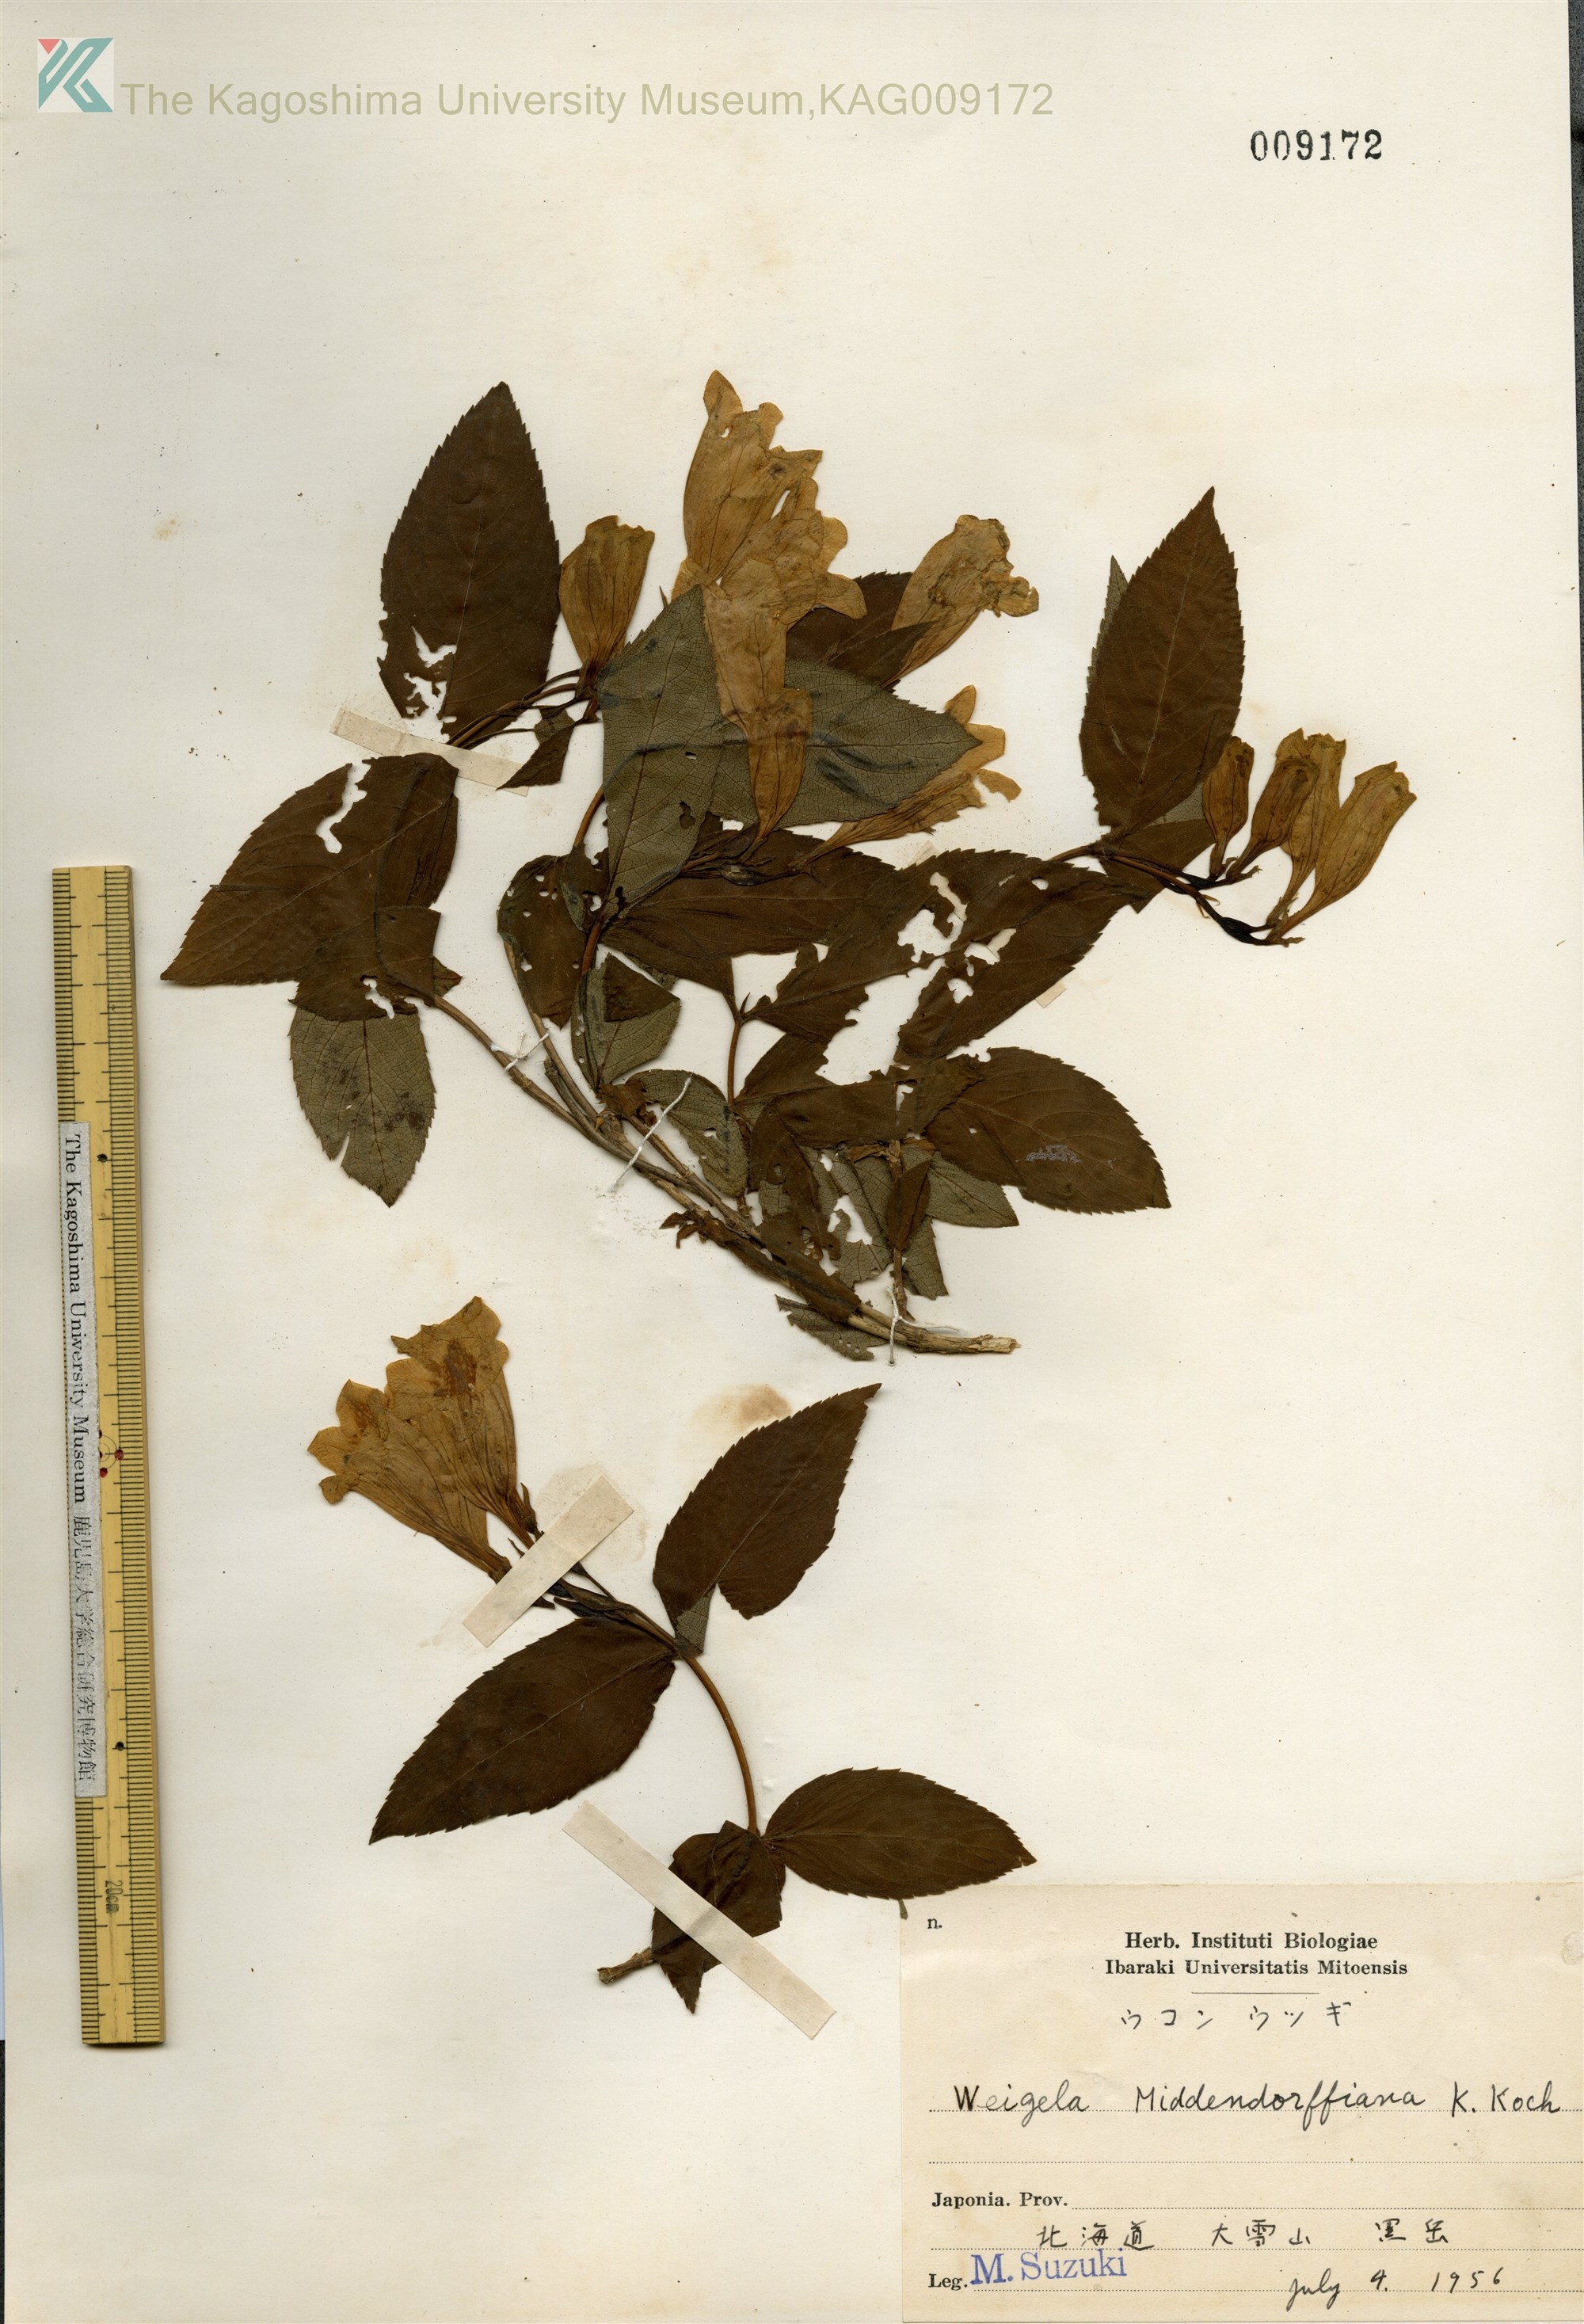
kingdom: Plantae
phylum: Tracheophyta
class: Magnoliopsida
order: Dipsacales
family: Caprifoliaceae
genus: Weigela
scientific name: Weigela middendorffiana
